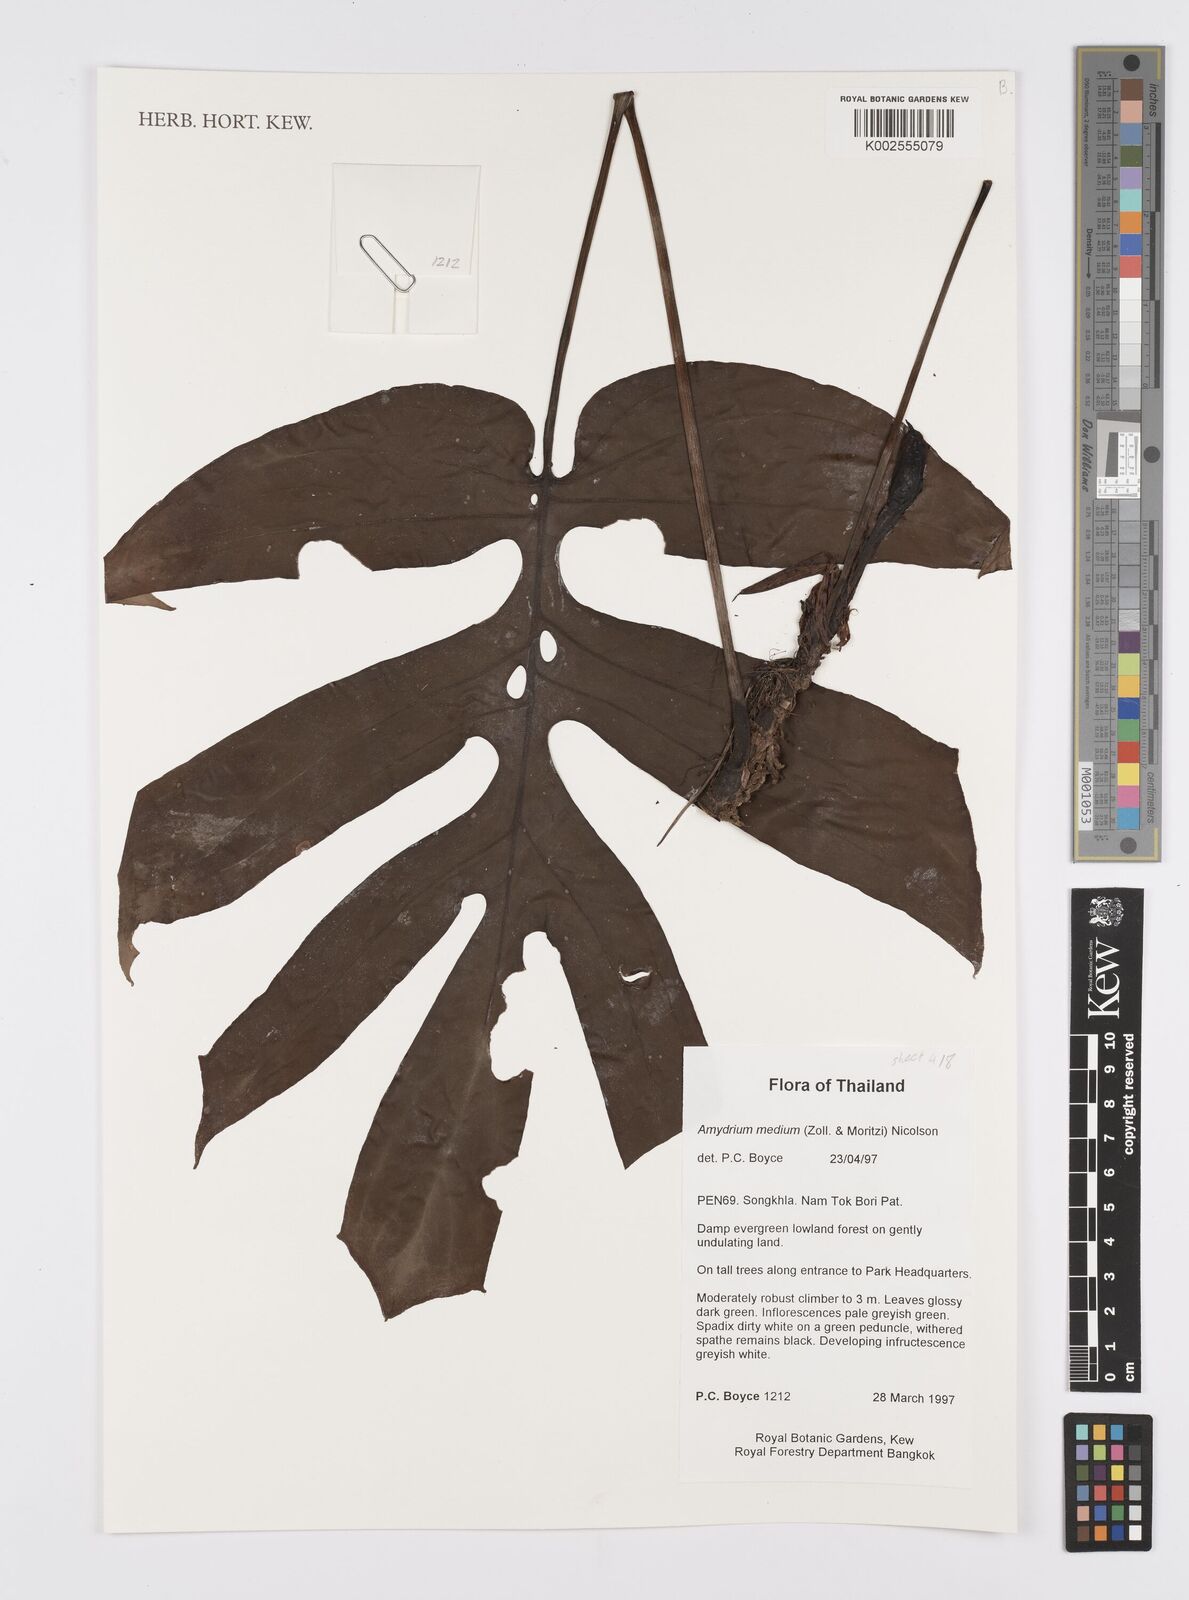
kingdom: Plantae
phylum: Tracheophyta
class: Liliopsida
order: Alismatales
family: Araceae
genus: Amydrium
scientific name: Amydrium medium
